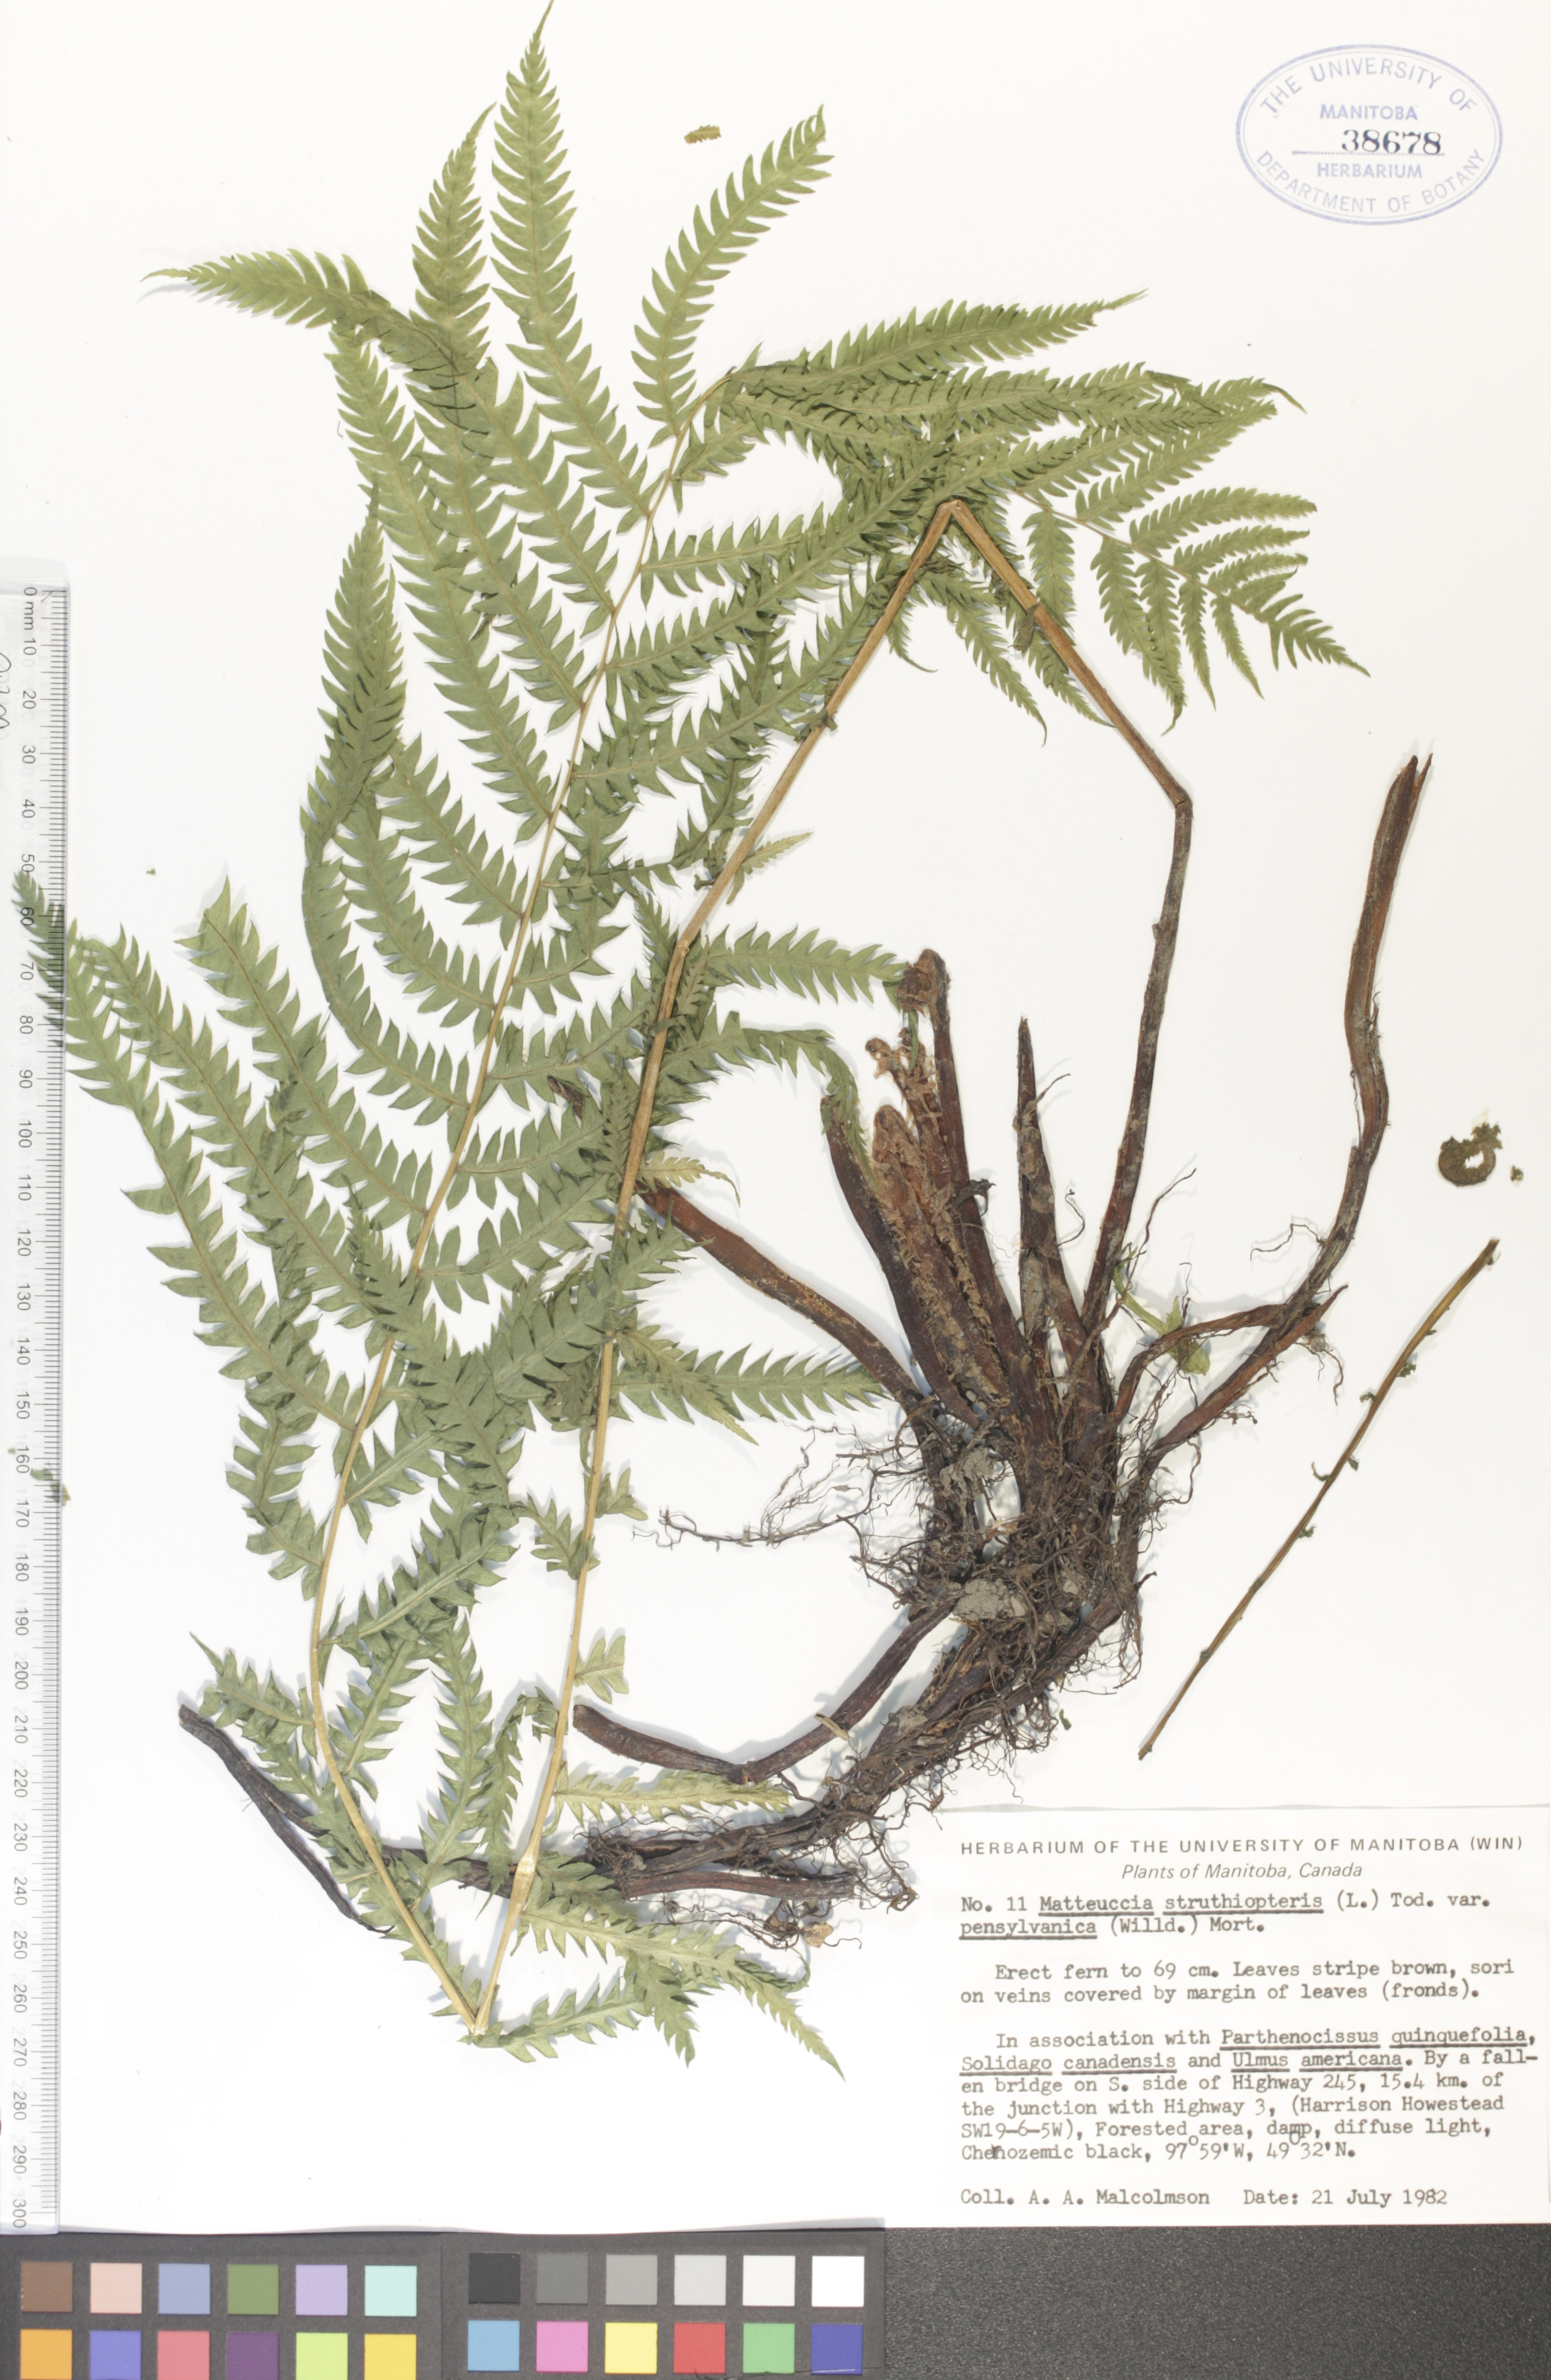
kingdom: Plantae
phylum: Tracheophyta
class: Polypodiopsida
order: Polypodiales
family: Onocleaceae
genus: Matteuccia
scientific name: Matteuccia pensylvanica
